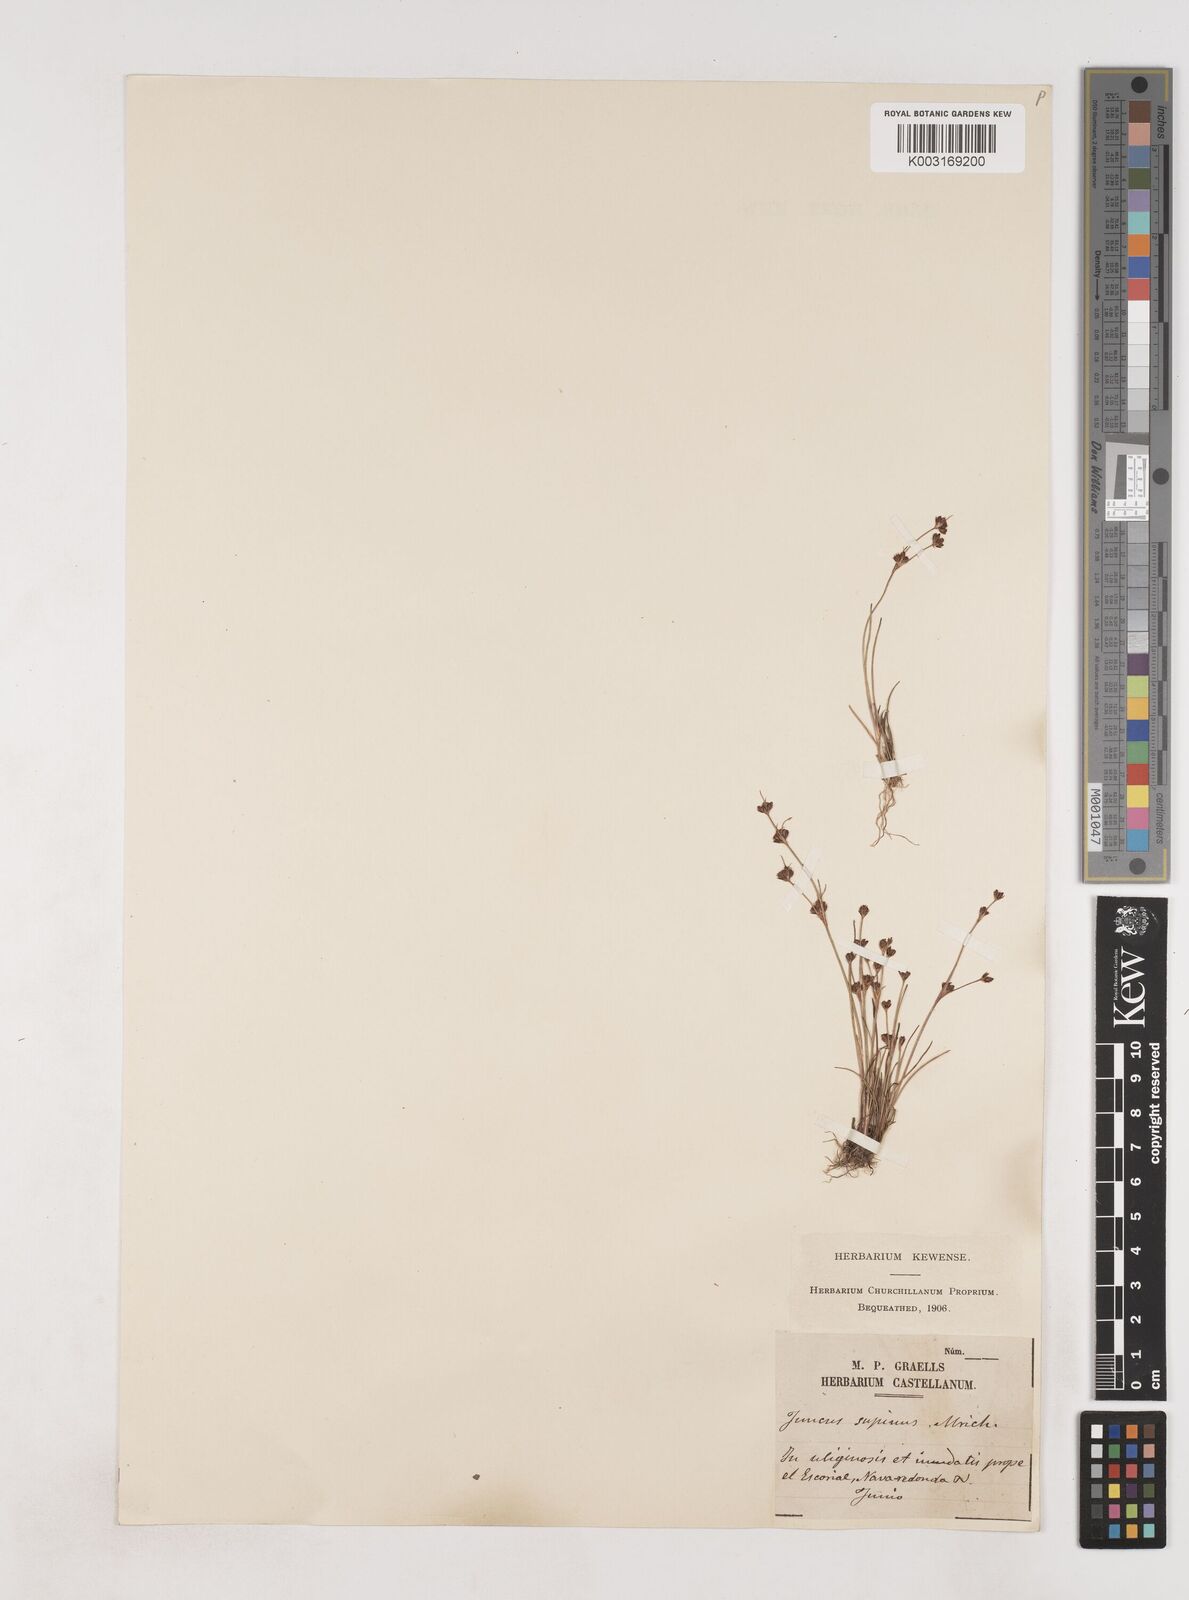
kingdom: Plantae
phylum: Tracheophyta
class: Liliopsida
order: Poales
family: Juncaceae
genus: Juncus
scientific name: Juncus bulbosus
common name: Bulbous rush
